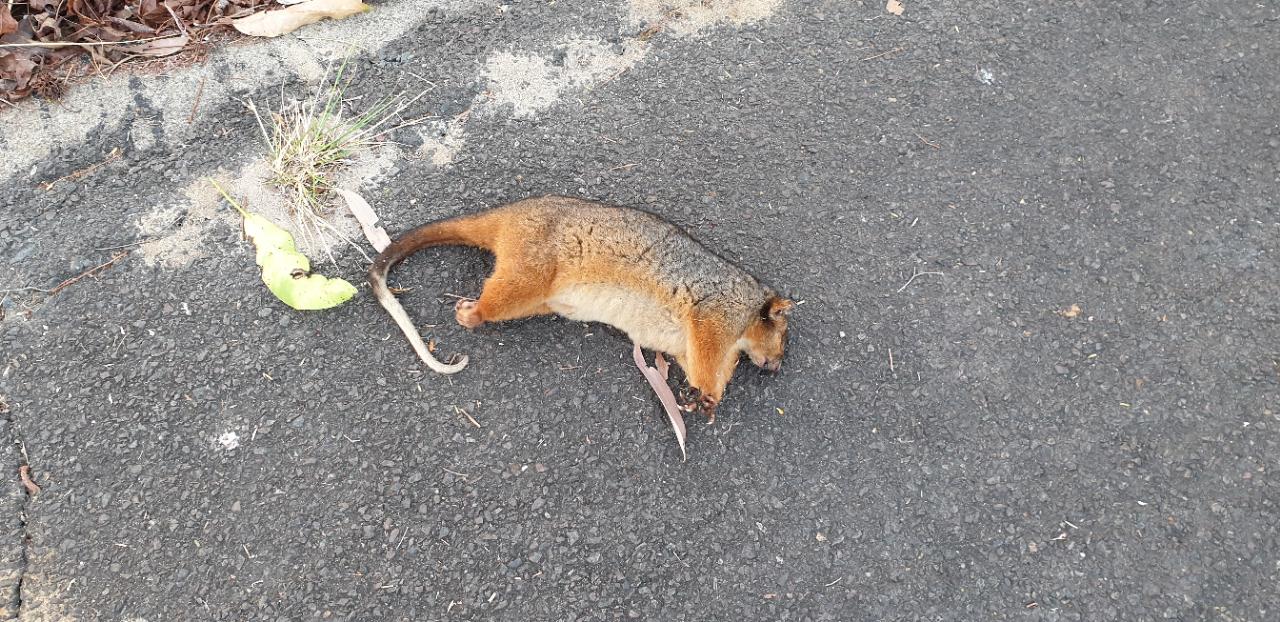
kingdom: Animalia
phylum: Chordata
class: Mammalia
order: Diprotodontia
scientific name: Diprotodontia
